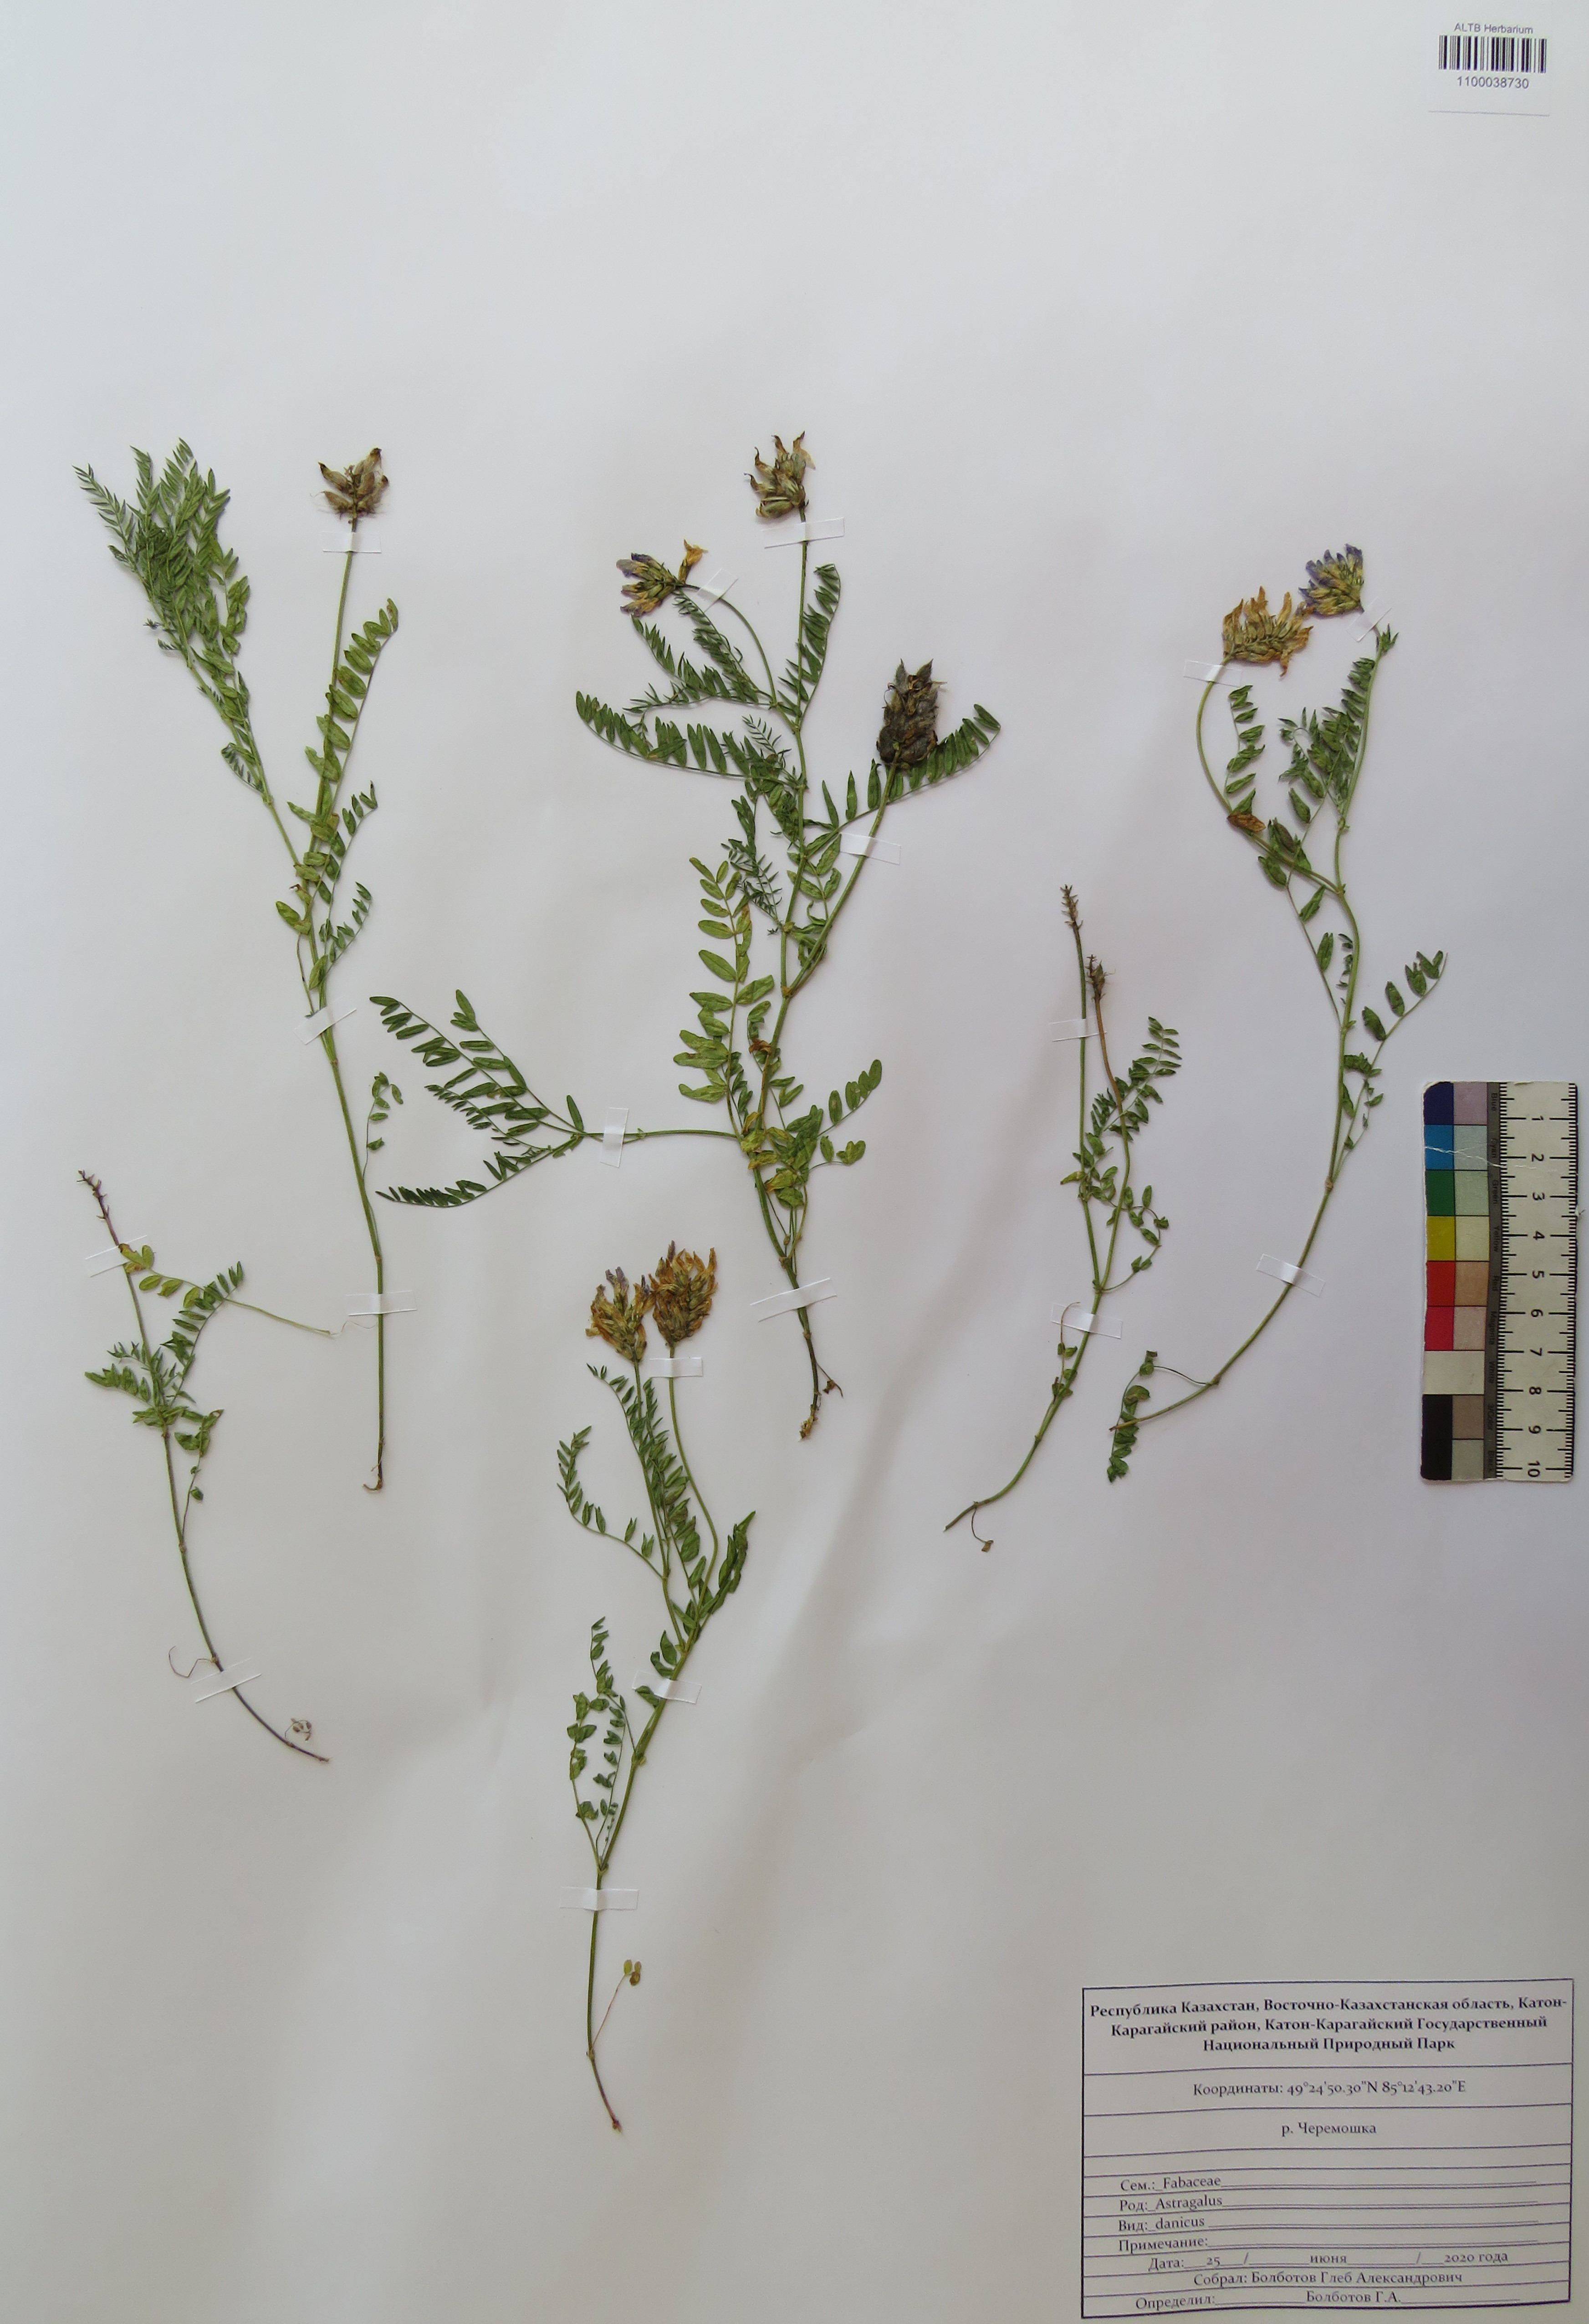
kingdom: Plantae
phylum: Tracheophyta
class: Magnoliopsida
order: Fabales
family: Fabaceae
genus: Astragalus
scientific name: Astragalus danicus
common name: Purple milk-vetch
